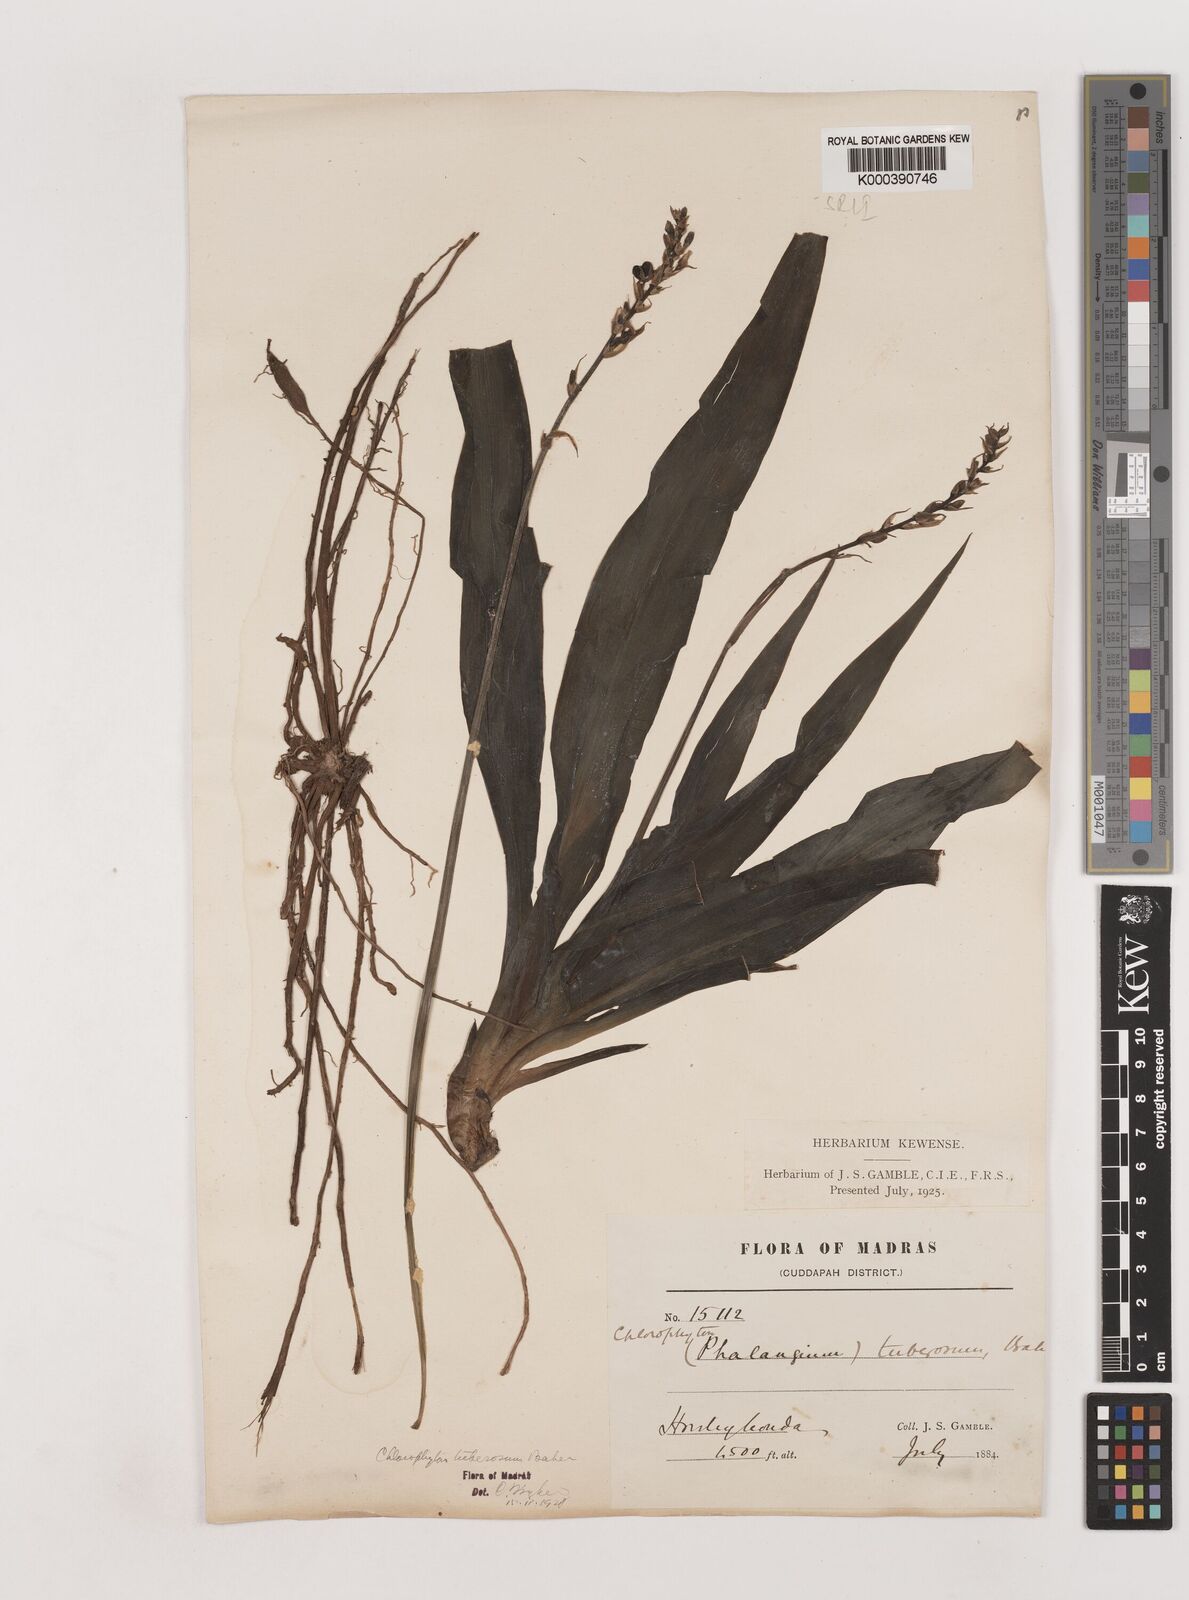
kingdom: Plantae
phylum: Tracheophyta
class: Liliopsida
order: Asparagales
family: Asparagaceae
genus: Chlorophytum
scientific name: Chlorophytum tuberosum
